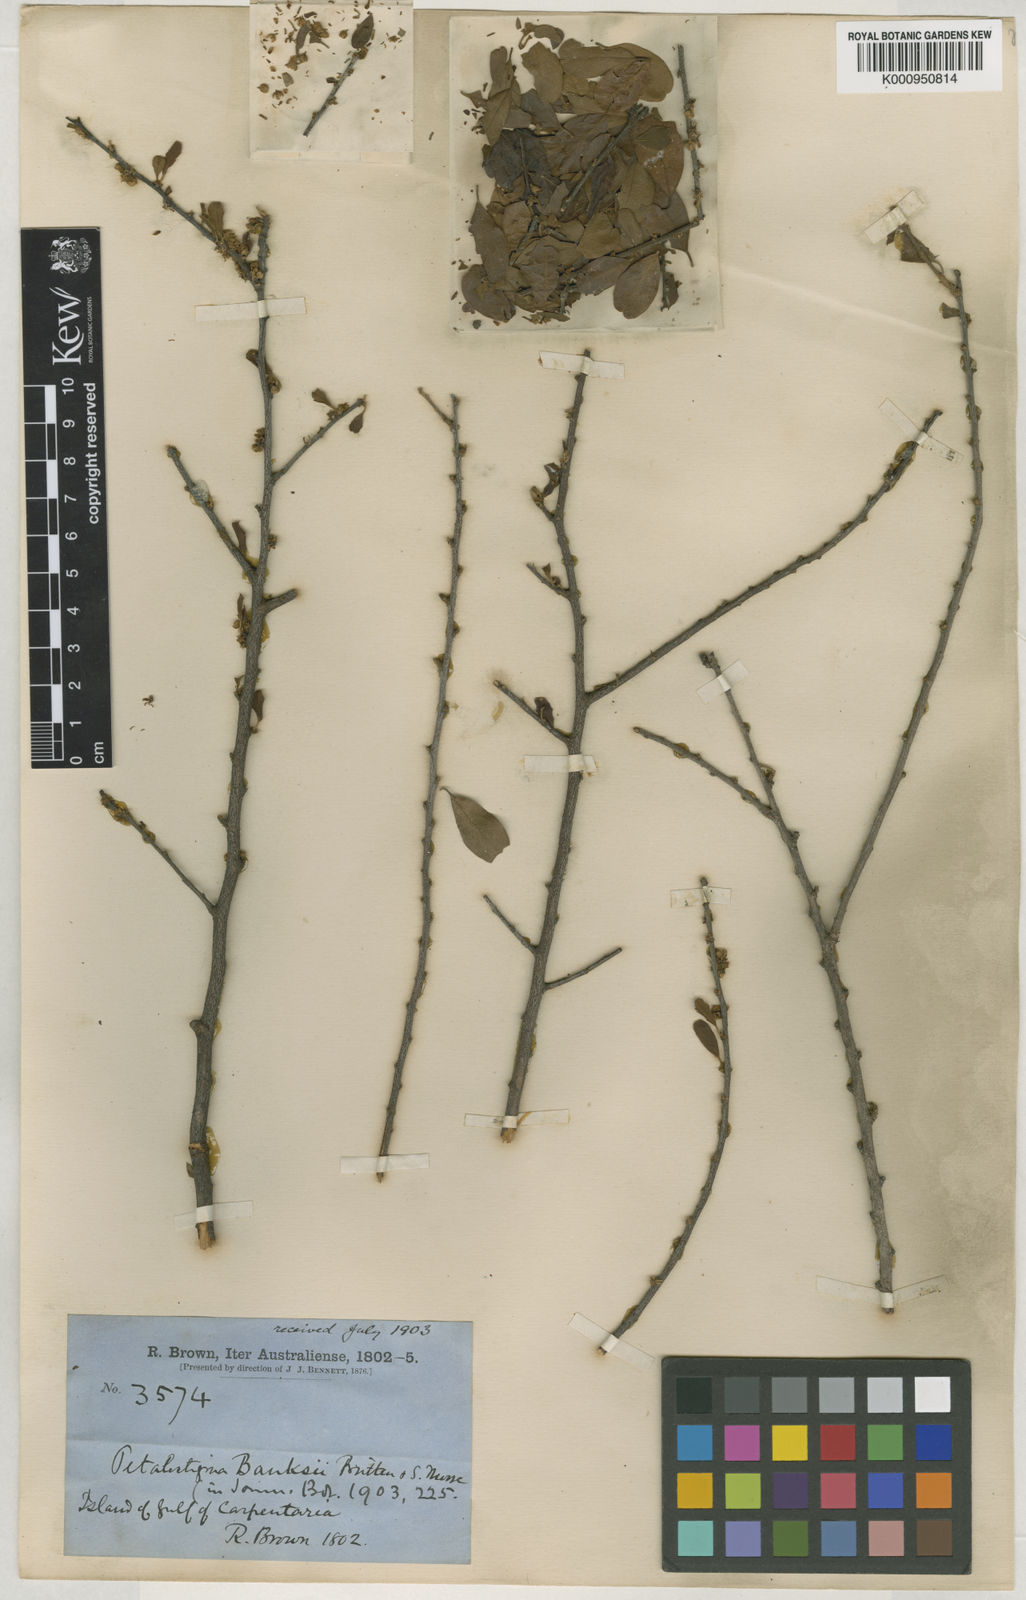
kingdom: Plantae
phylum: Tracheophyta
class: Magnoliopsida
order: Malpighiales
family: Picrodendraceae
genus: Petalostigma
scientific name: Petalostigma banksii
